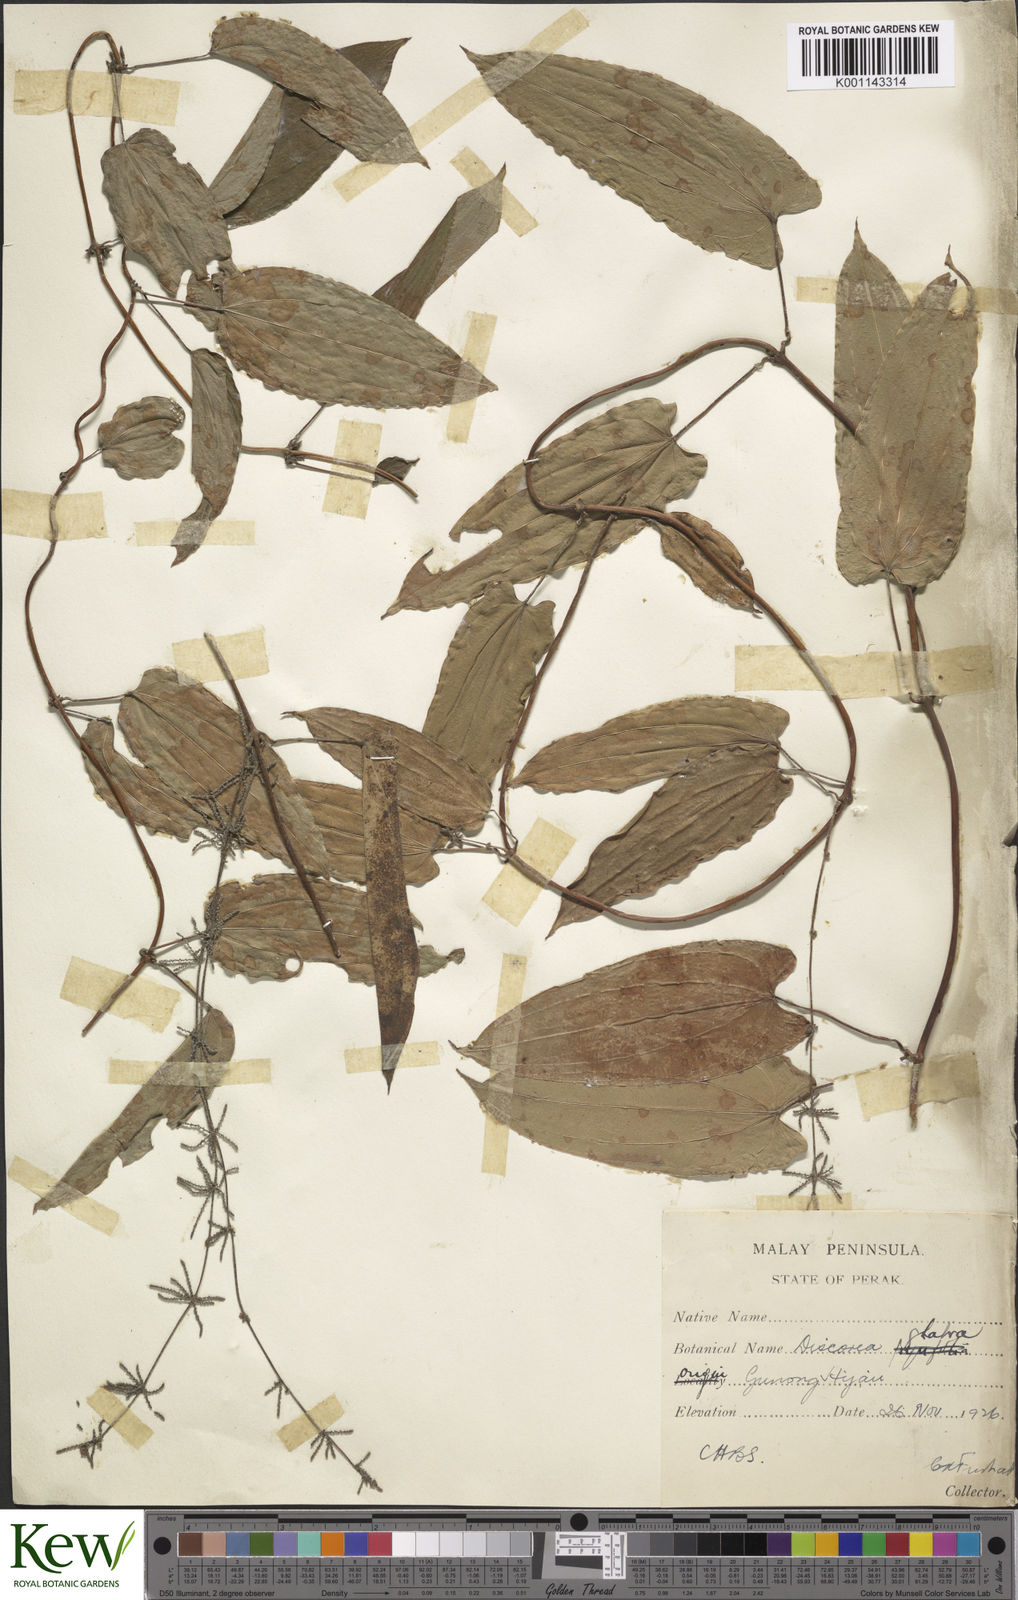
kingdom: Plantae
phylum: Tracheophyta
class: Liliopsida
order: Dioscoreales
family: Dioscoreaceae
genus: Dioscorea
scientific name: Dioscorea glabra
